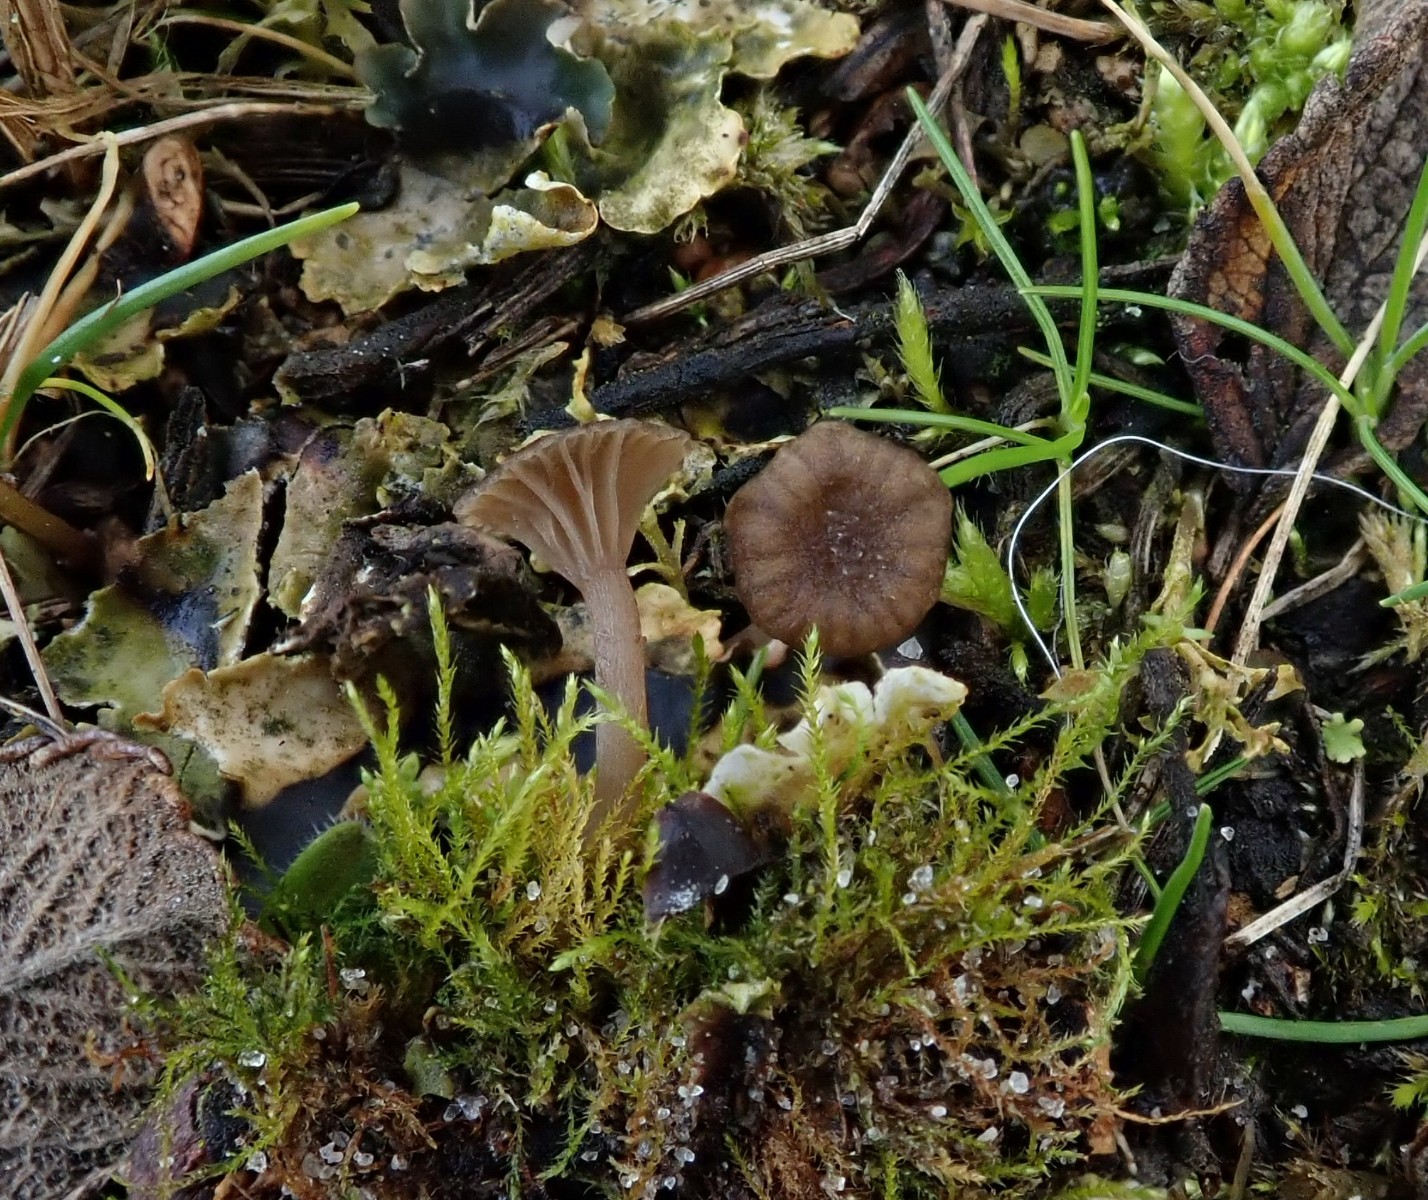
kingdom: Fungi
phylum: Basidiomycota
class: Agaricomycetes
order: Agaricales
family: Hygrophoraceae
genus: Arrhenia
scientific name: Arrhenia peltigerina
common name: skjoldlav-fontænehat
